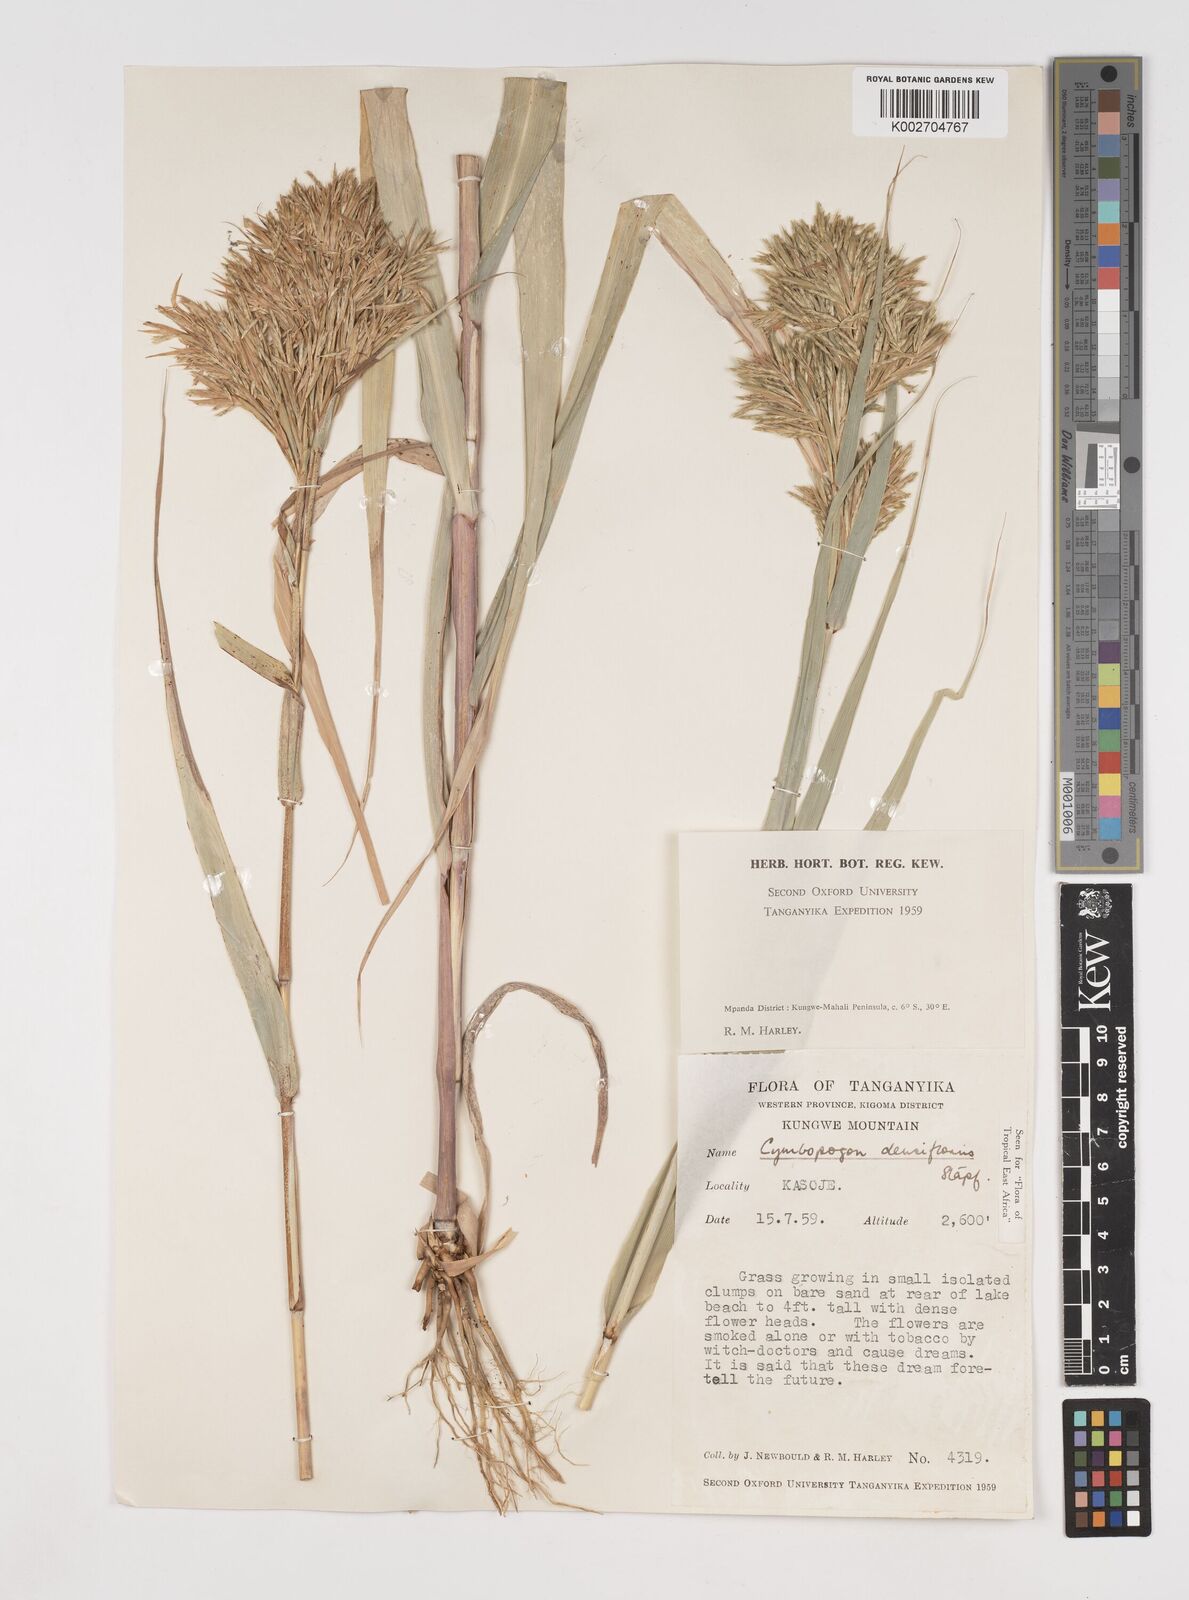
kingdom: Plantae
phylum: Tracheophyta
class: Liliopsida
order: Poales
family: Poaceae
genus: Cymbopogon
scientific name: Cymbopogon densiflorus
